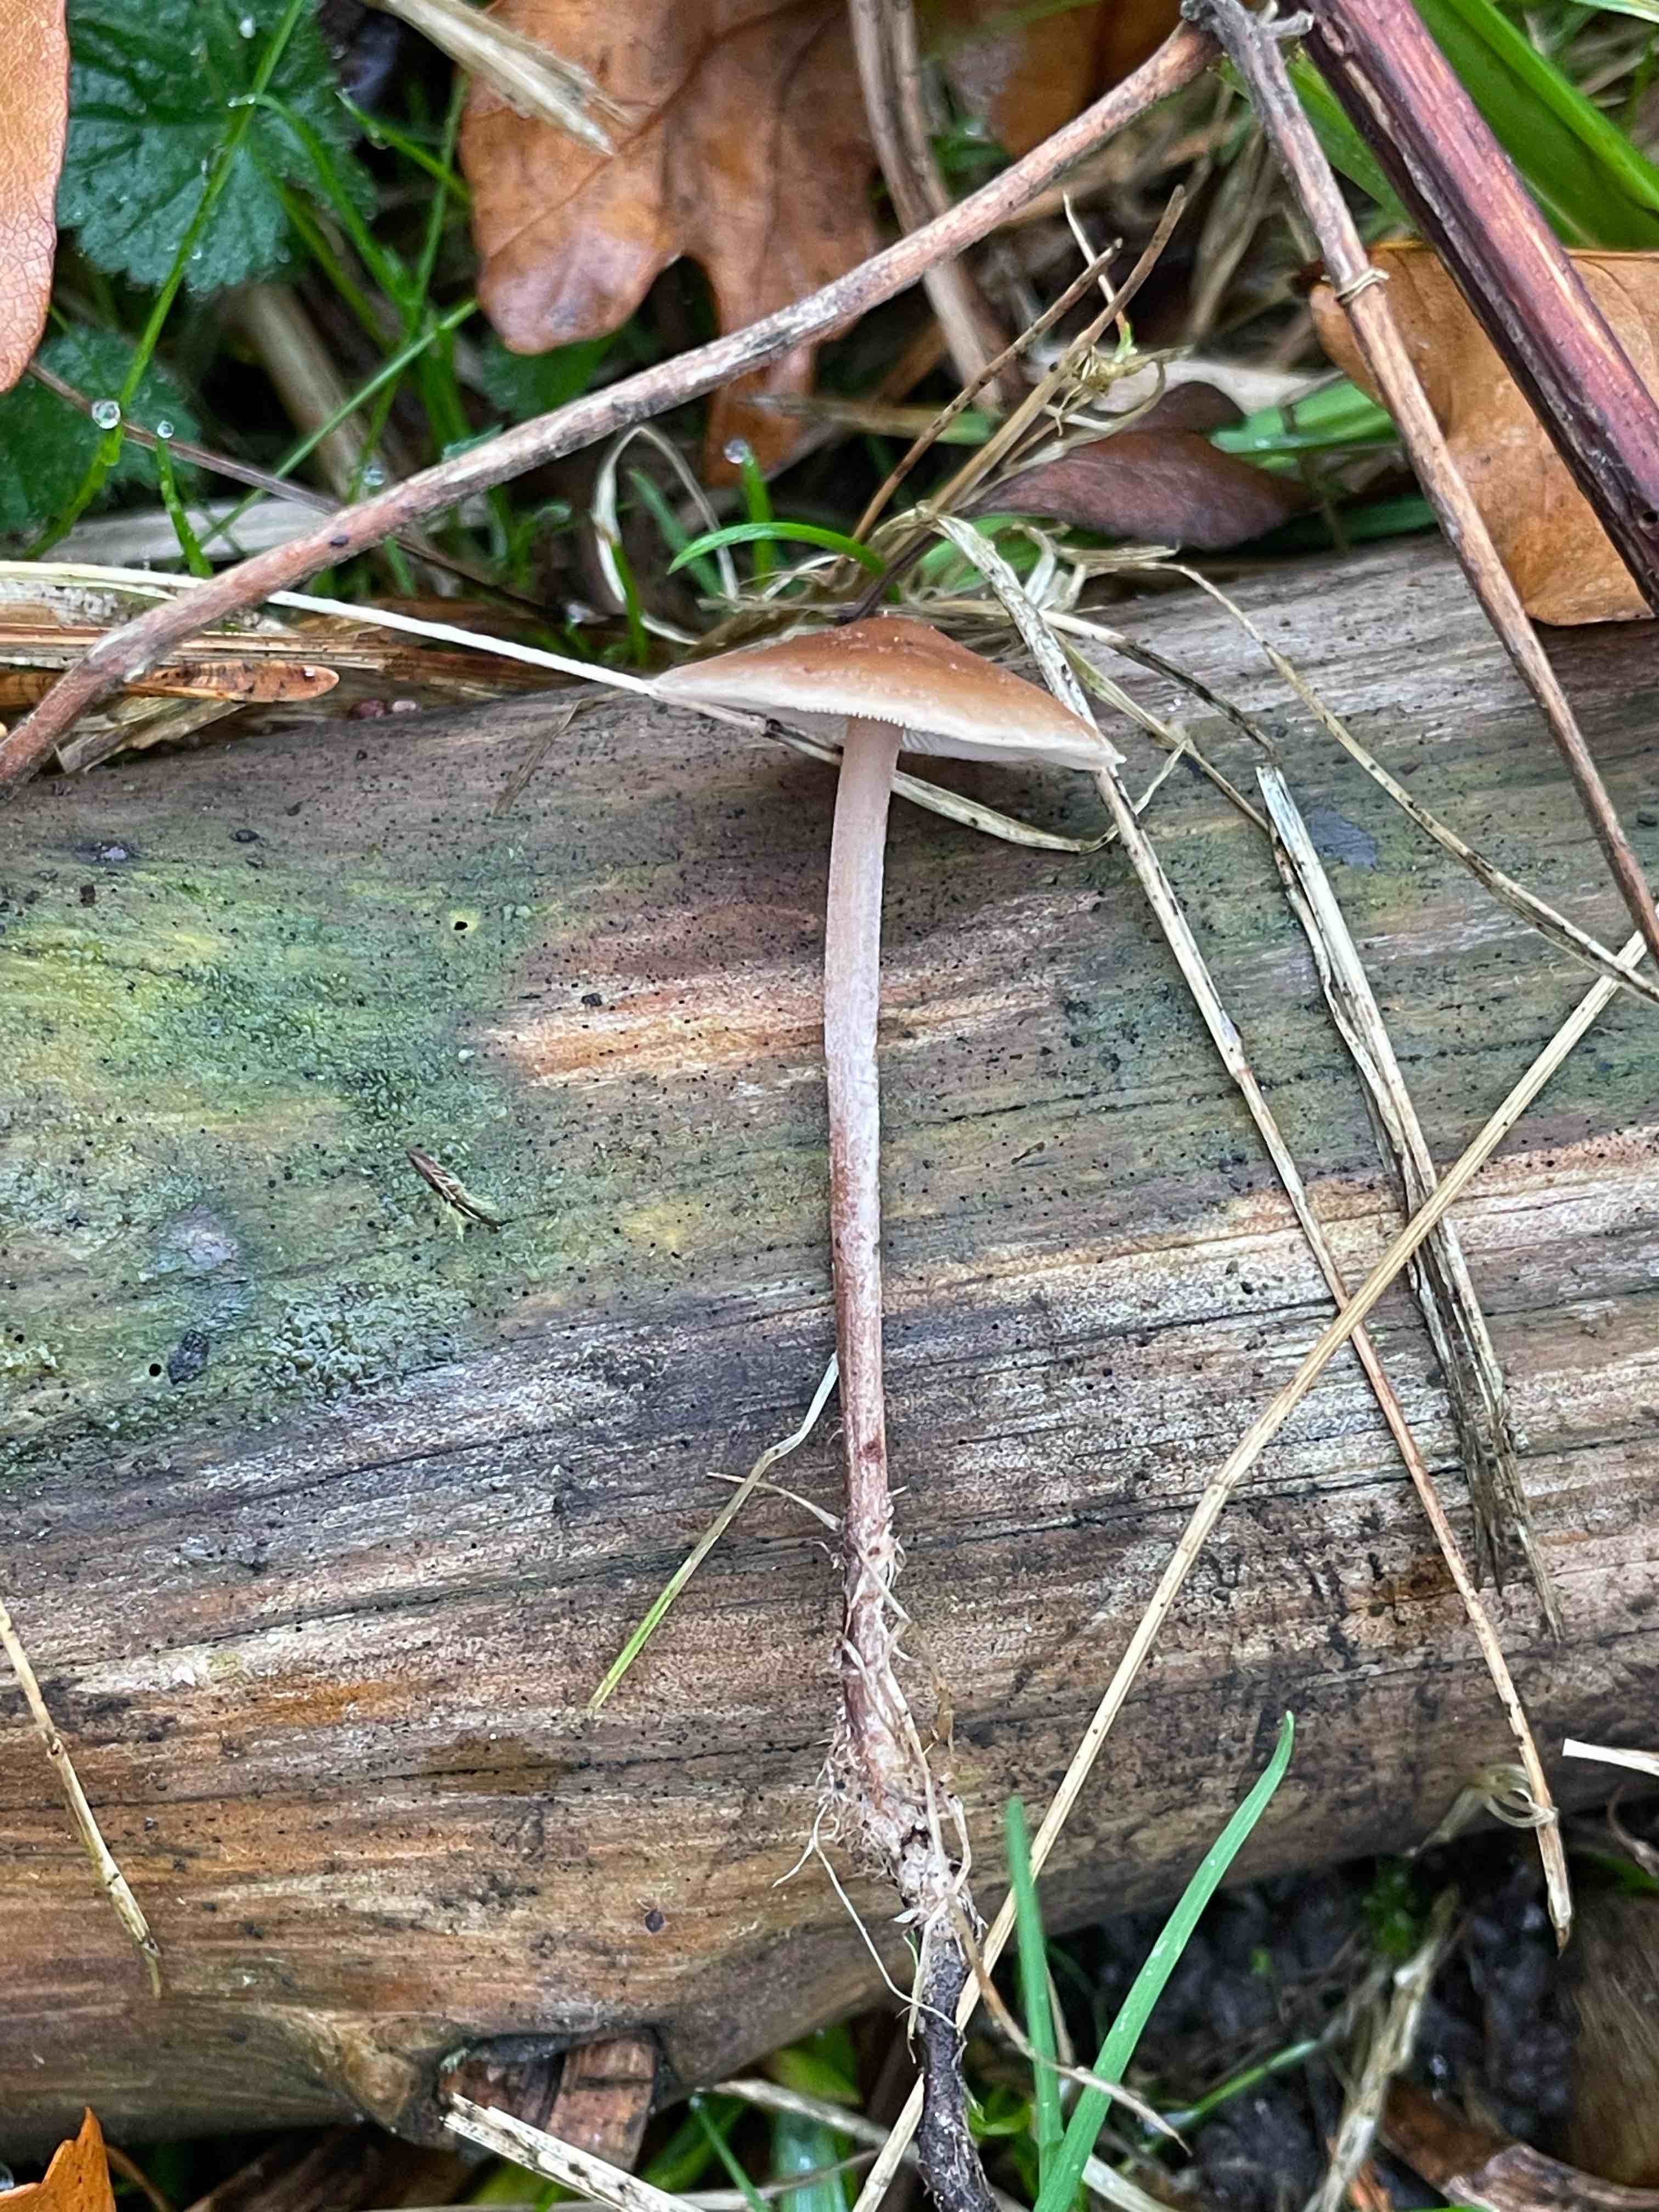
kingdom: Fungi
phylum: Basidiomycota
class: Agaricomycetes
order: Agaricales
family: Marasmiaceae
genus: Baeospora
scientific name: Baeospora myosura
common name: koglebruskhat
